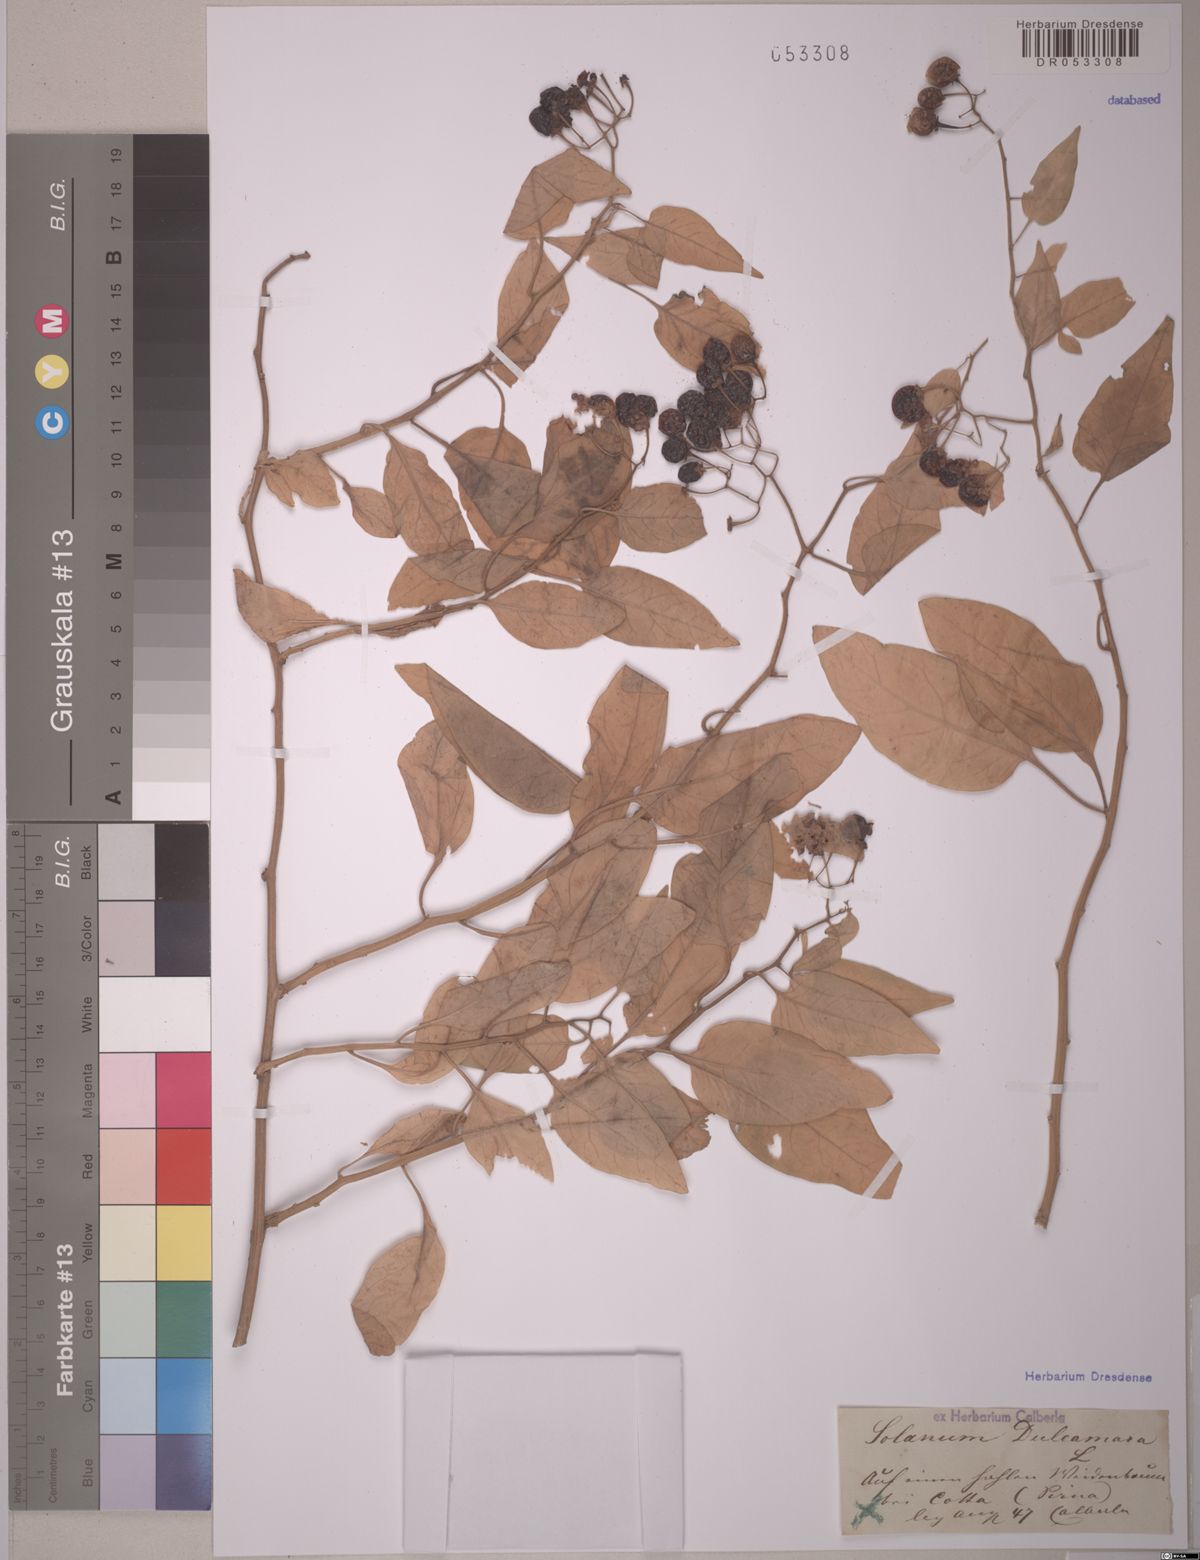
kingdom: Plantae
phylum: Tracheophyta
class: Magnoliopsida
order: Solanales
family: Solanaceae
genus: Solanum
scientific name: Solanum dulcamara
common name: Climbing nightshade
